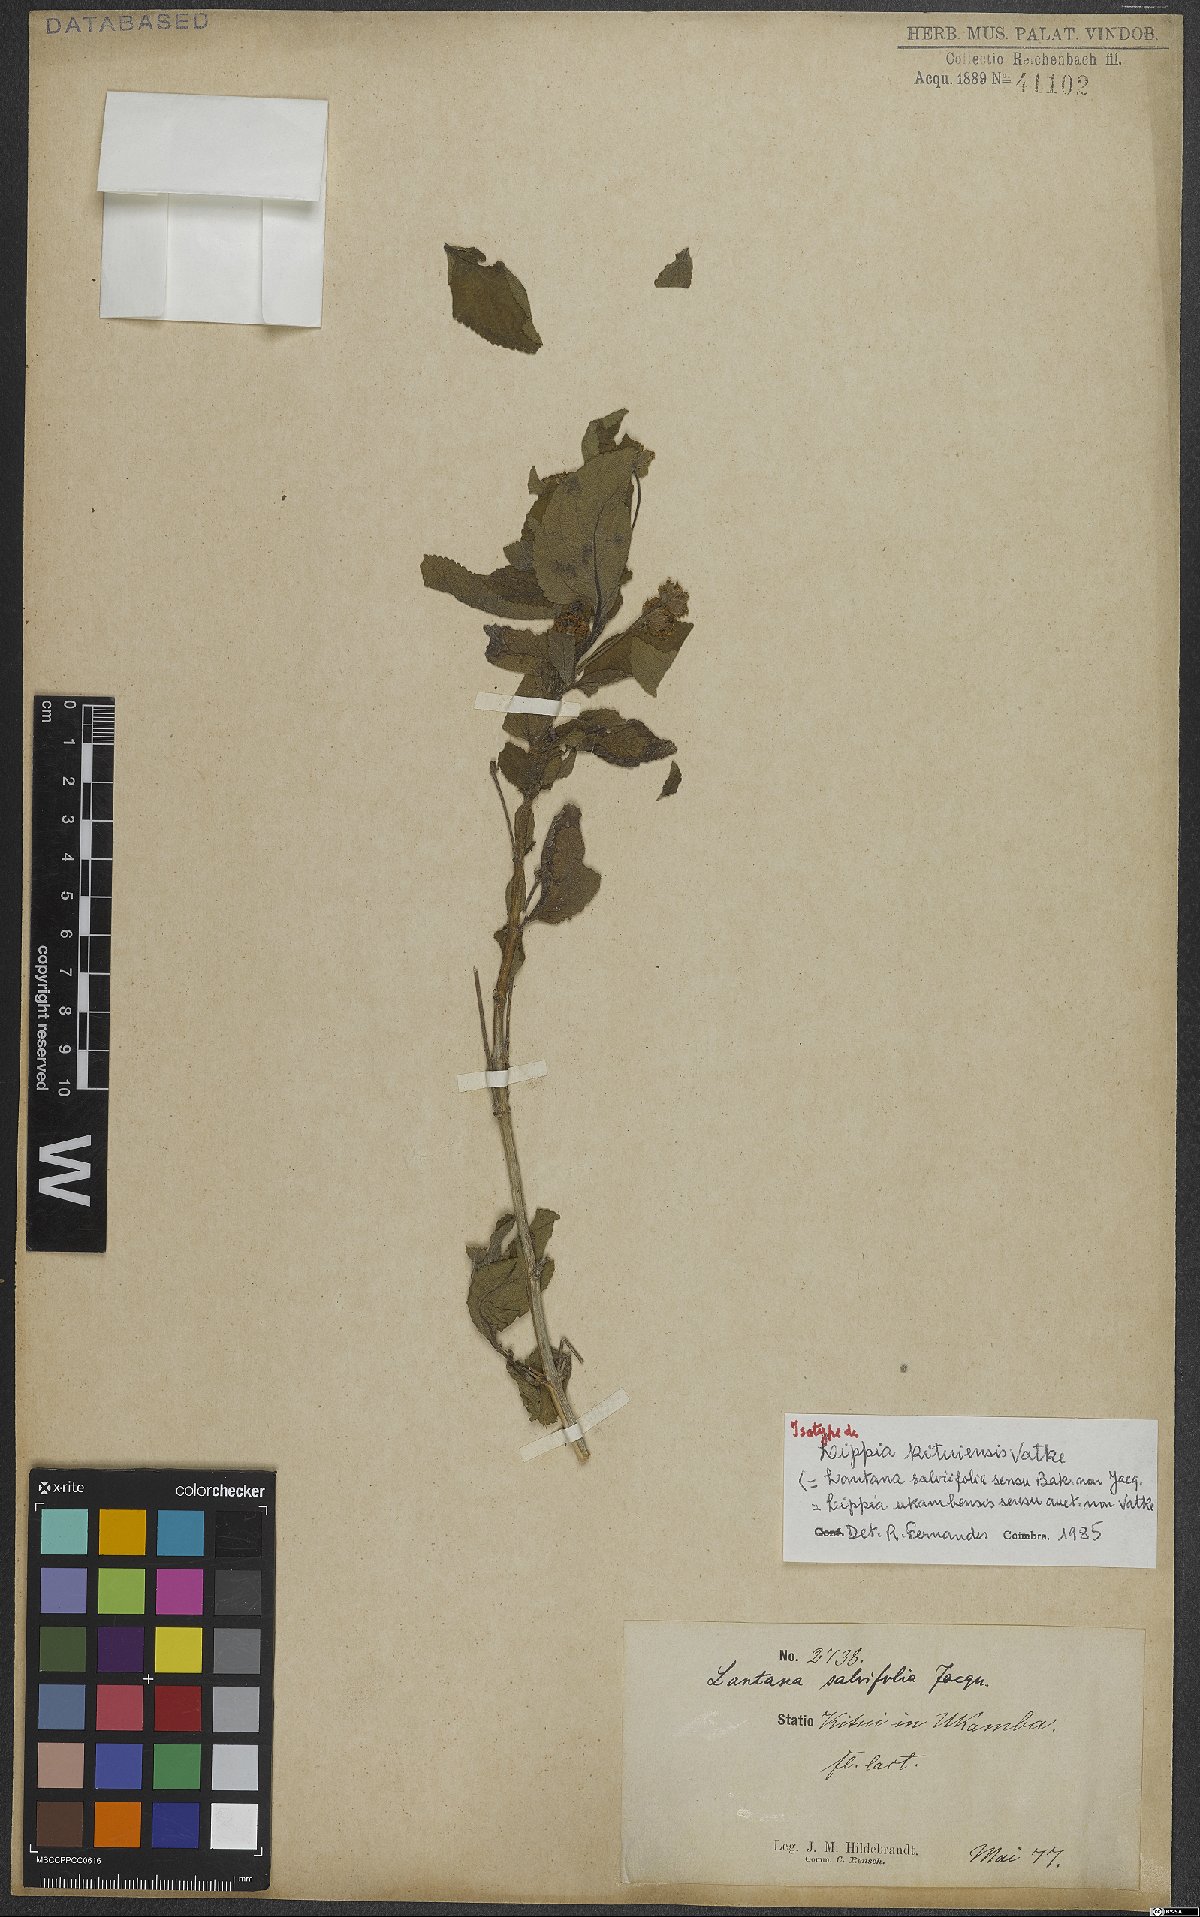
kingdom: Plantae
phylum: Tracheophyta
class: Magnoliopsida
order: Lamiales
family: Verbenaceae
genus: Lippia
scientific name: Lippia kituiensis
